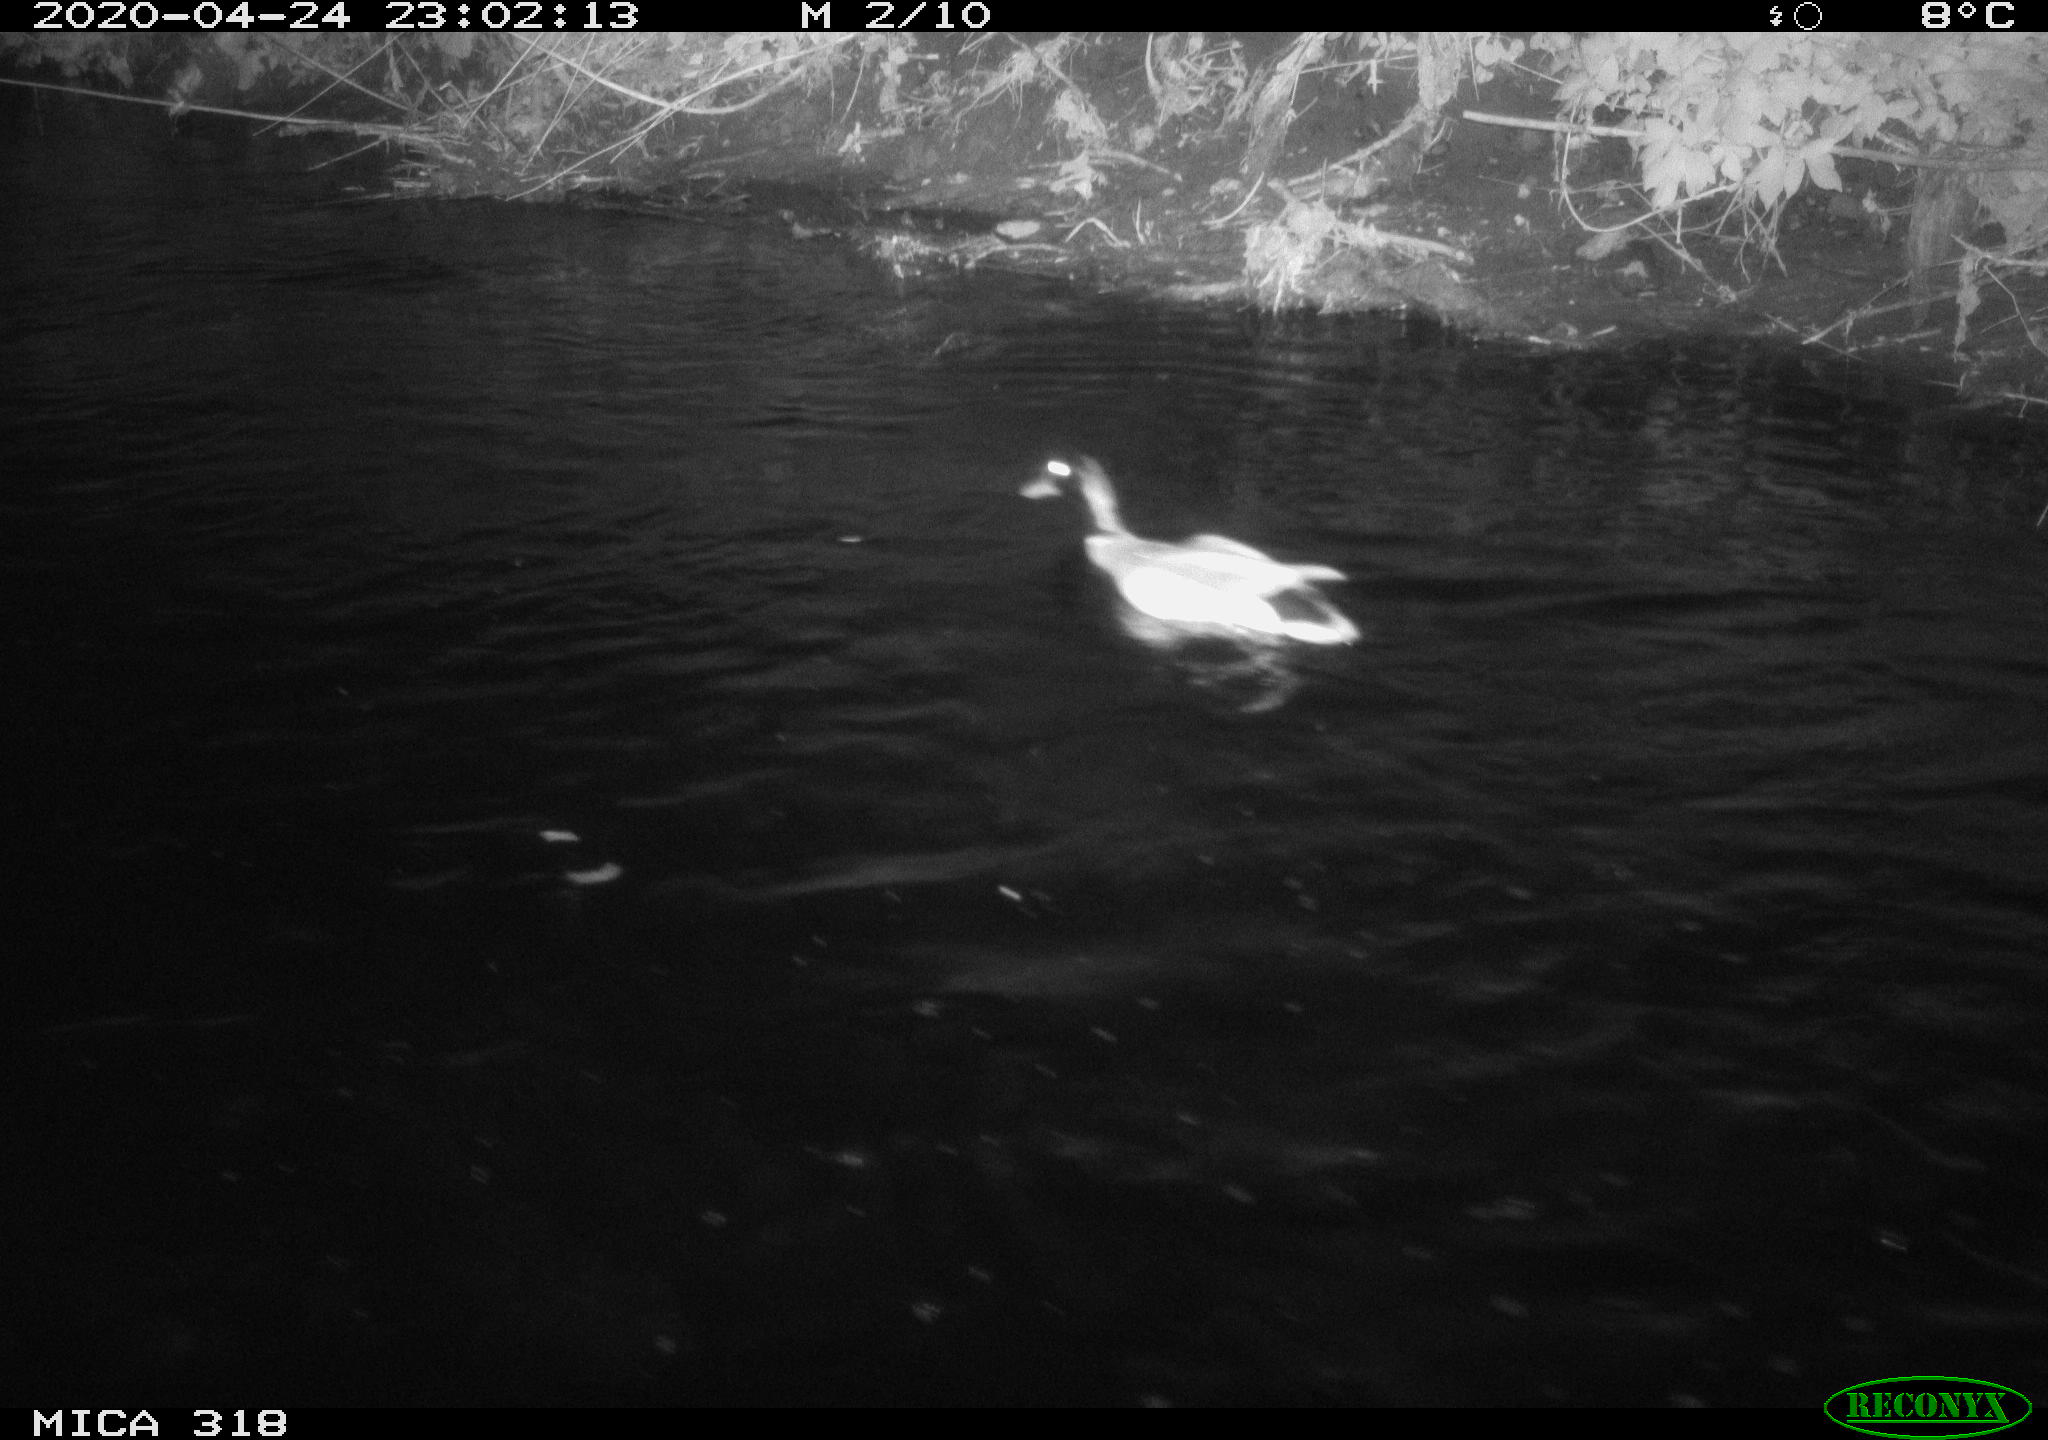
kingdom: Animalia
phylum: Chordata
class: Aves
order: Anseriformes
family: Anatidae
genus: Anas
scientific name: Anas platyrhynchos
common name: Mallard
